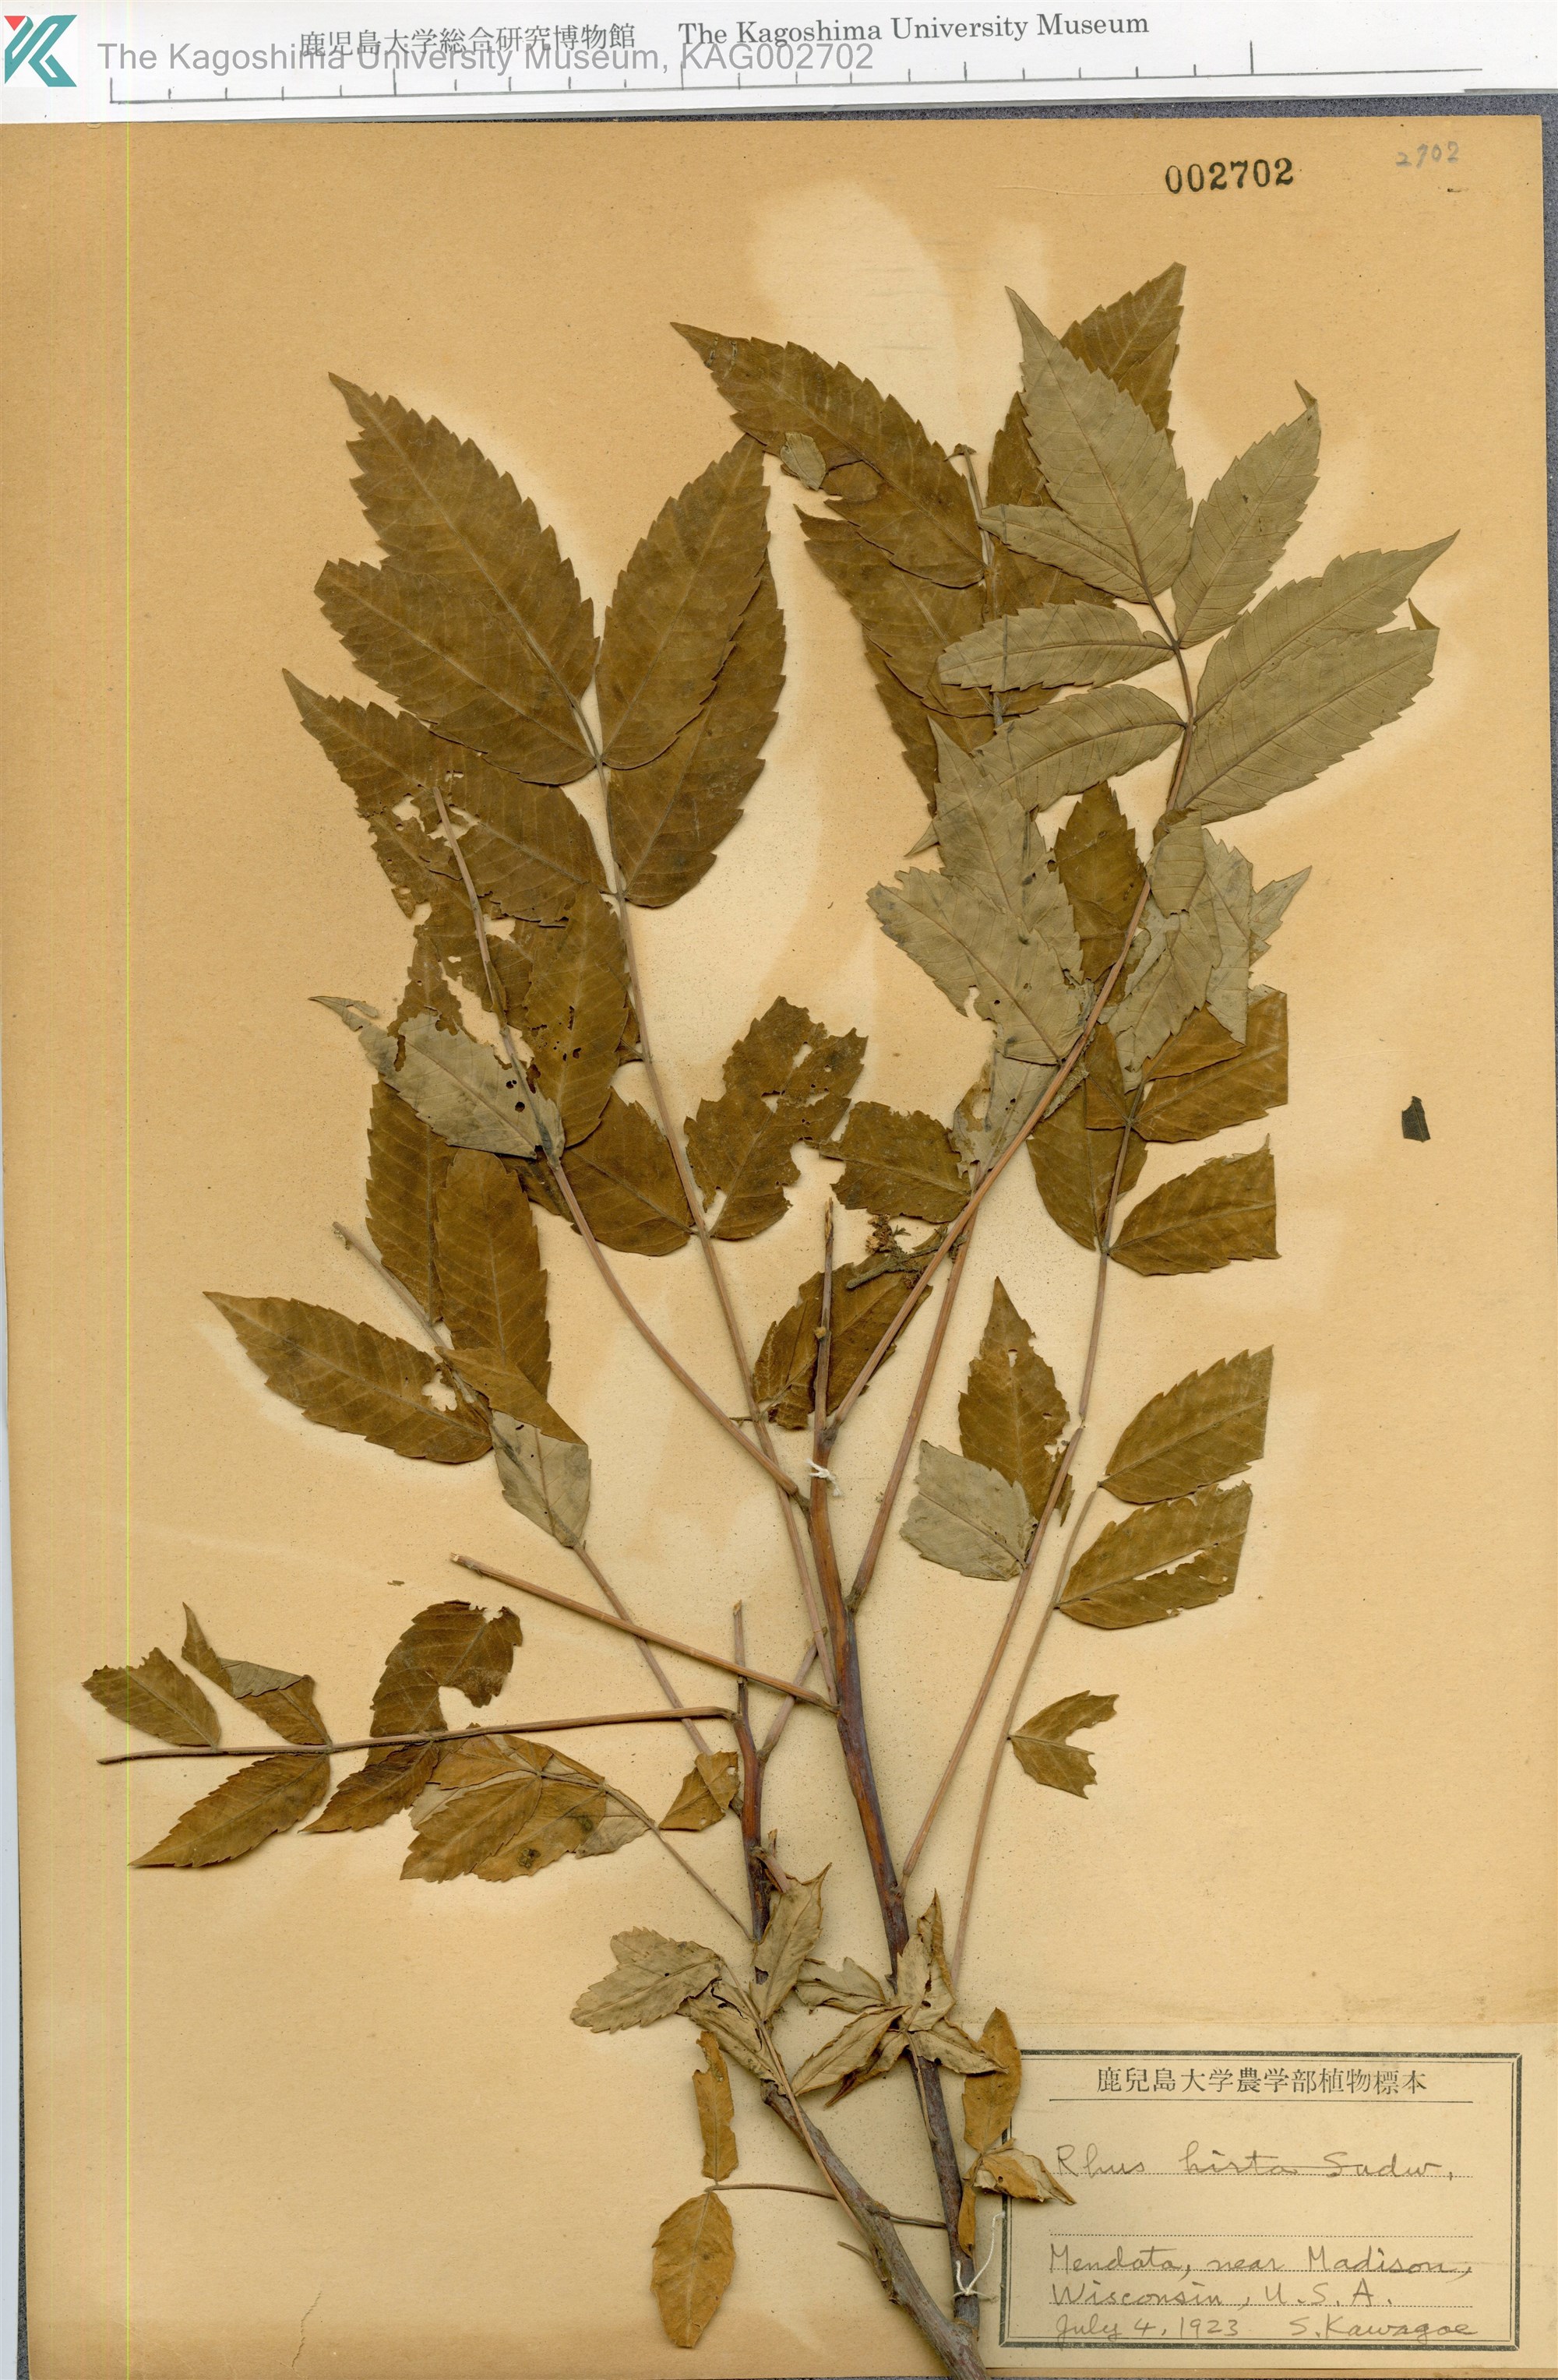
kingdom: Plantae
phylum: Tracheophyta
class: Magnoliopsida
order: Sapindales
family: Anacardiaceae
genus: Rhus
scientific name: Rhus typhina
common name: Staghorn sumac
